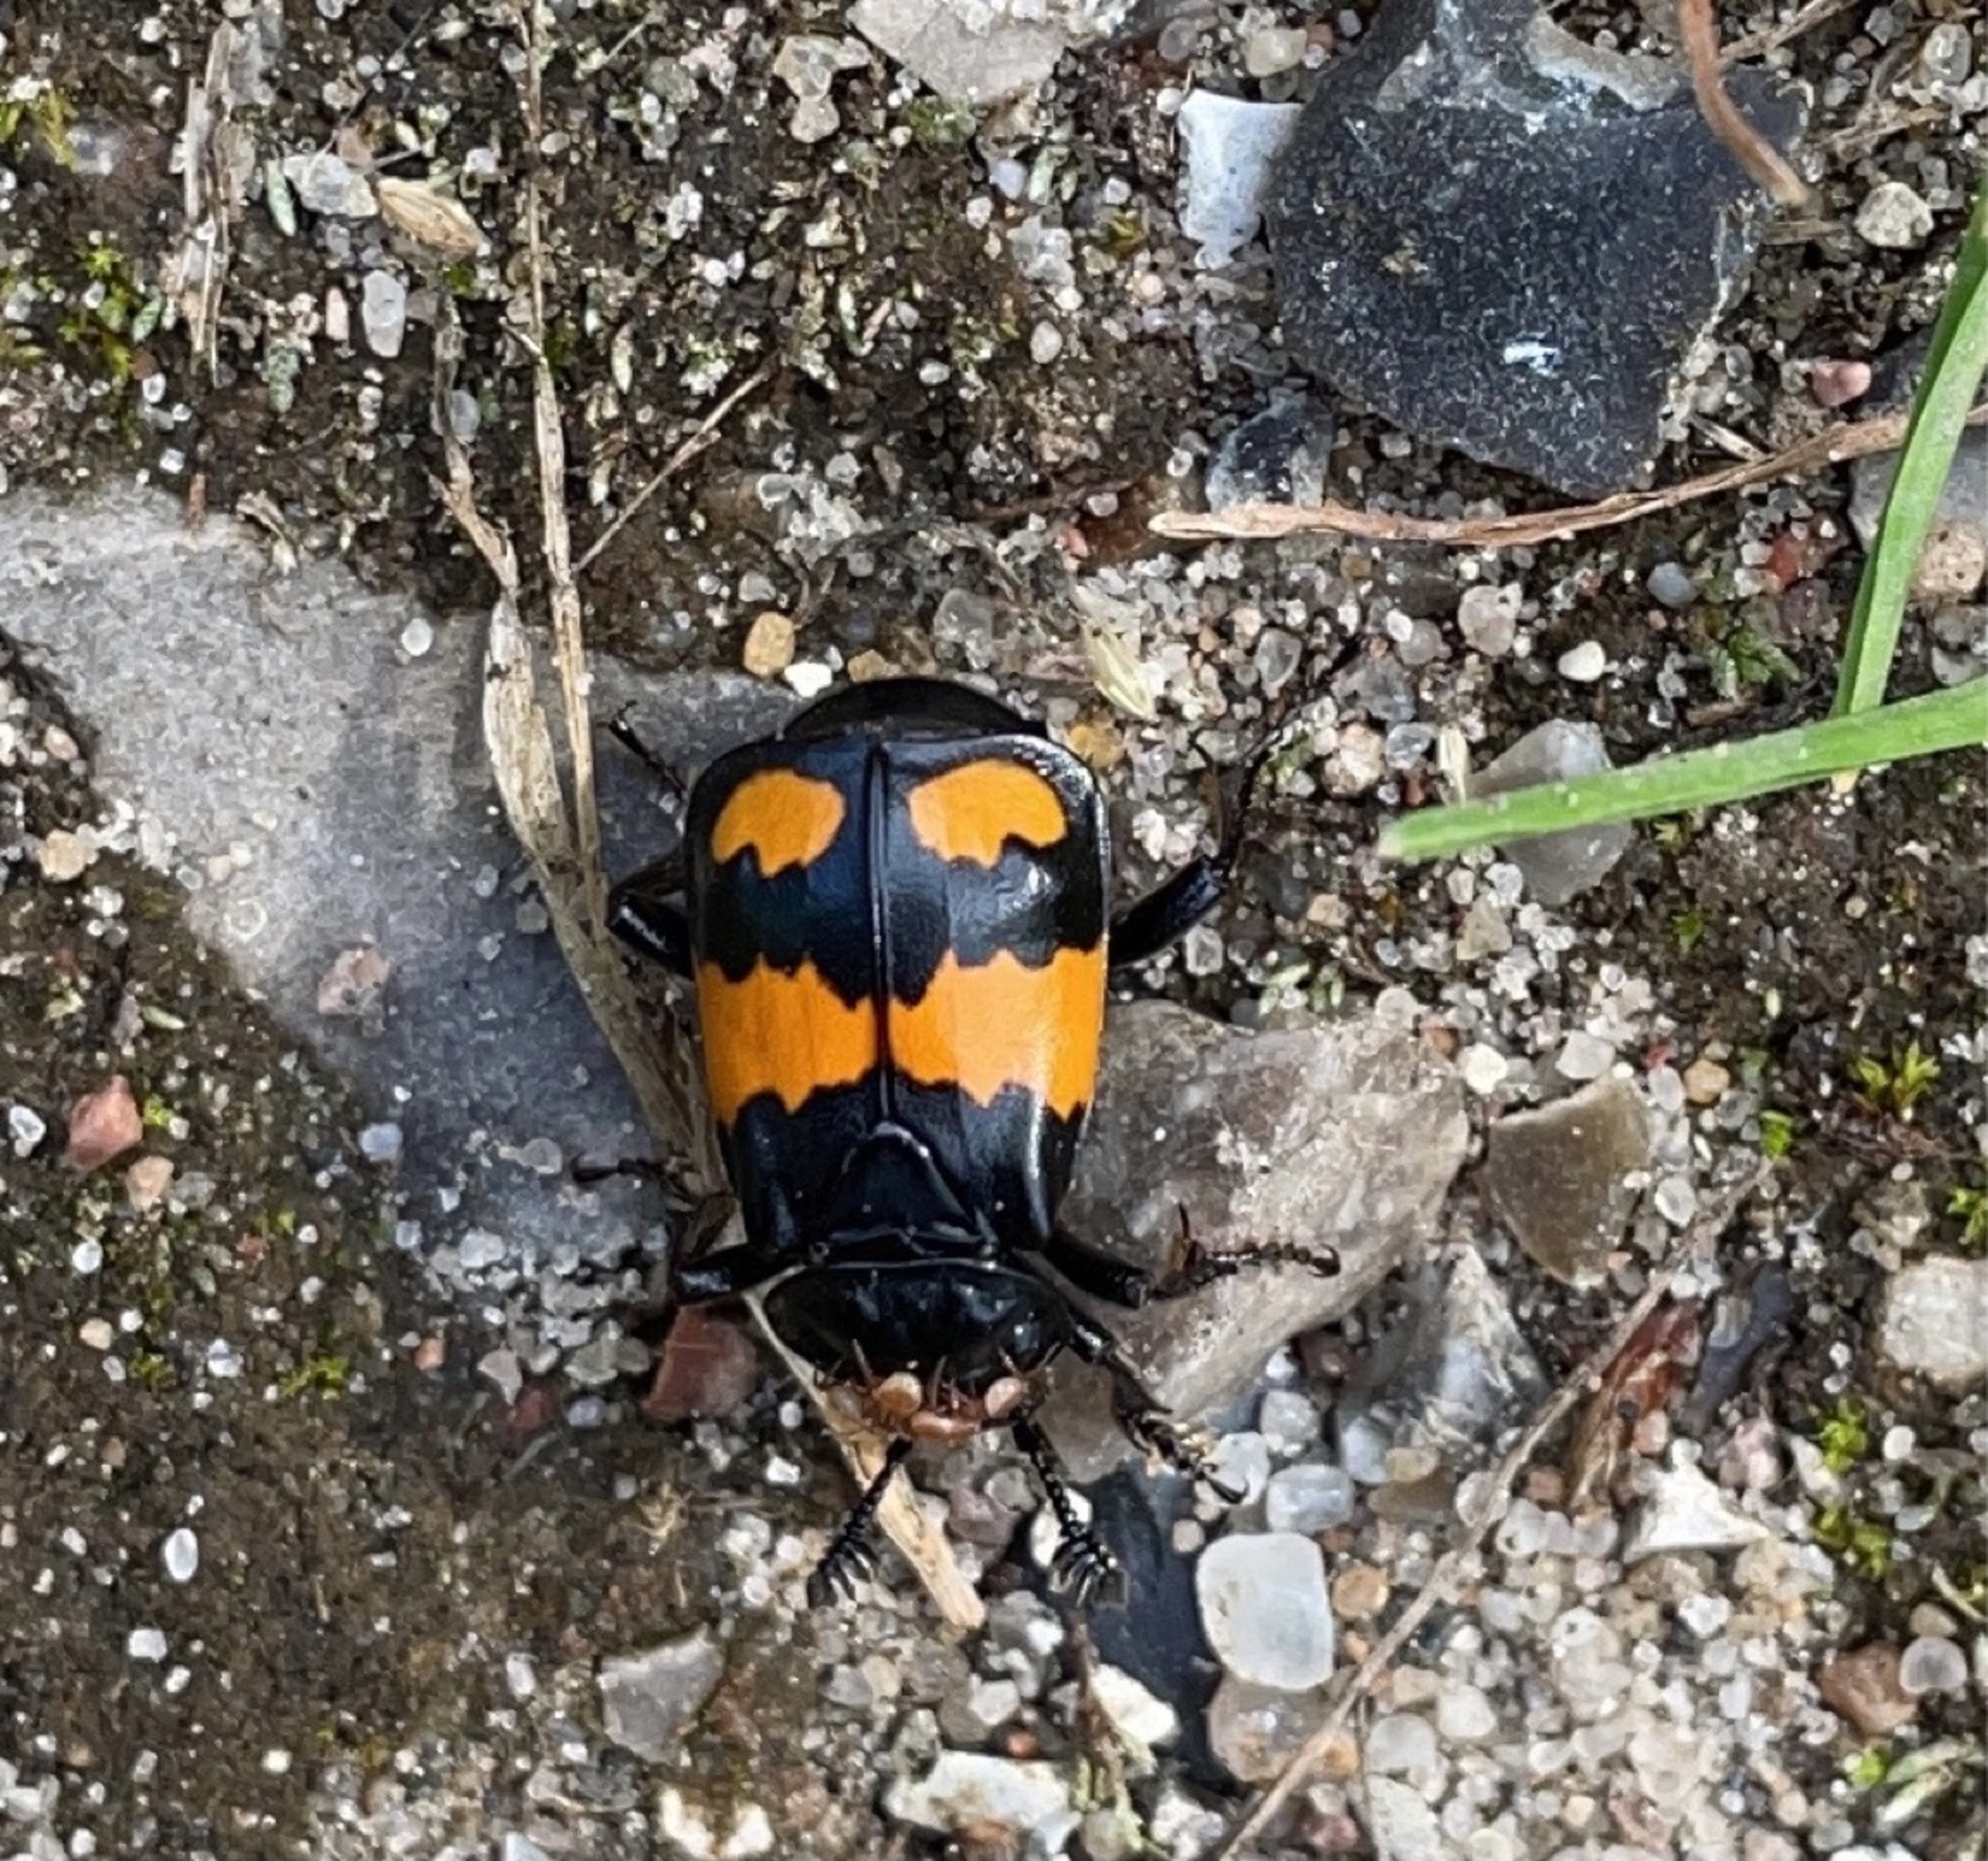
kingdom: Animalia
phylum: Arthropoda
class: Insecta
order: Coleoptera
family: Staphylinidae
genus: Nicrophorus
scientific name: Nicrophorus vespilloides
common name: Sortkøllet ådselgraver
